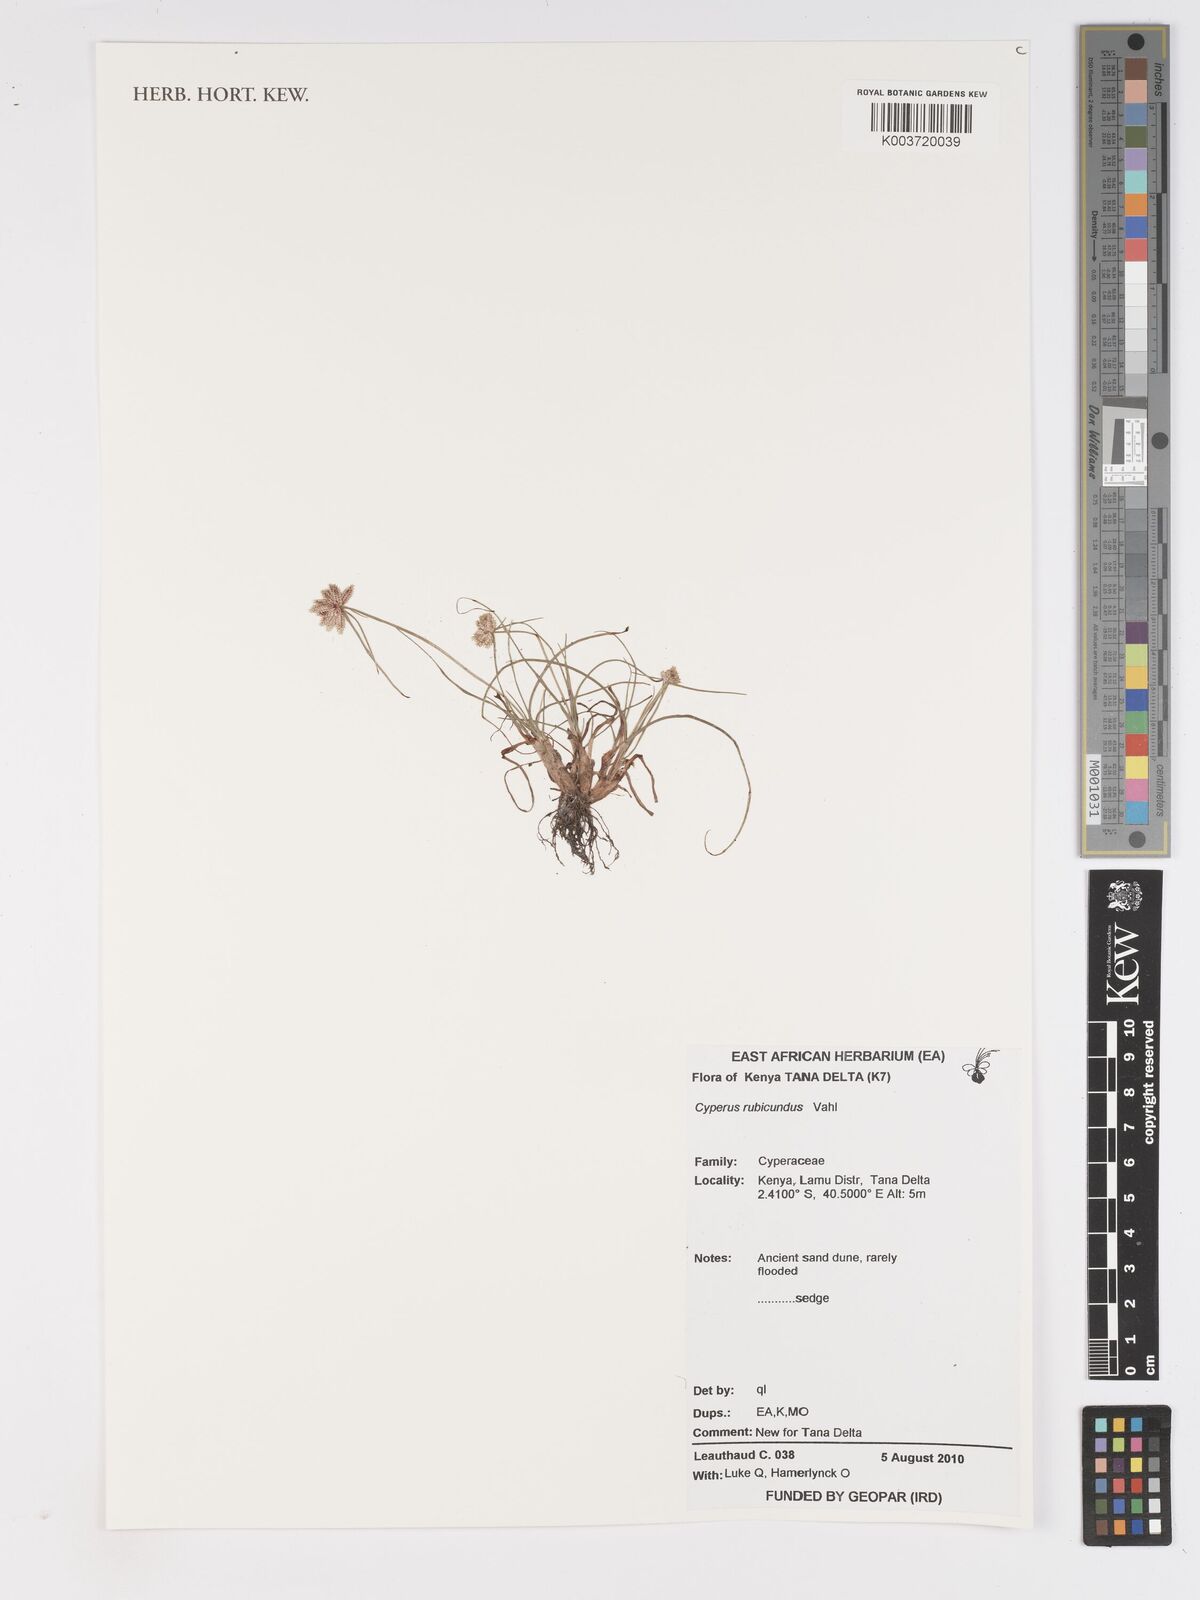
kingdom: Plantae
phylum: Tracheophyta
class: Liliopsida
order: Poales
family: Cyperaceae
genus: Cyperus
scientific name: Cyperus rubicundus
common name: Coco-grass
